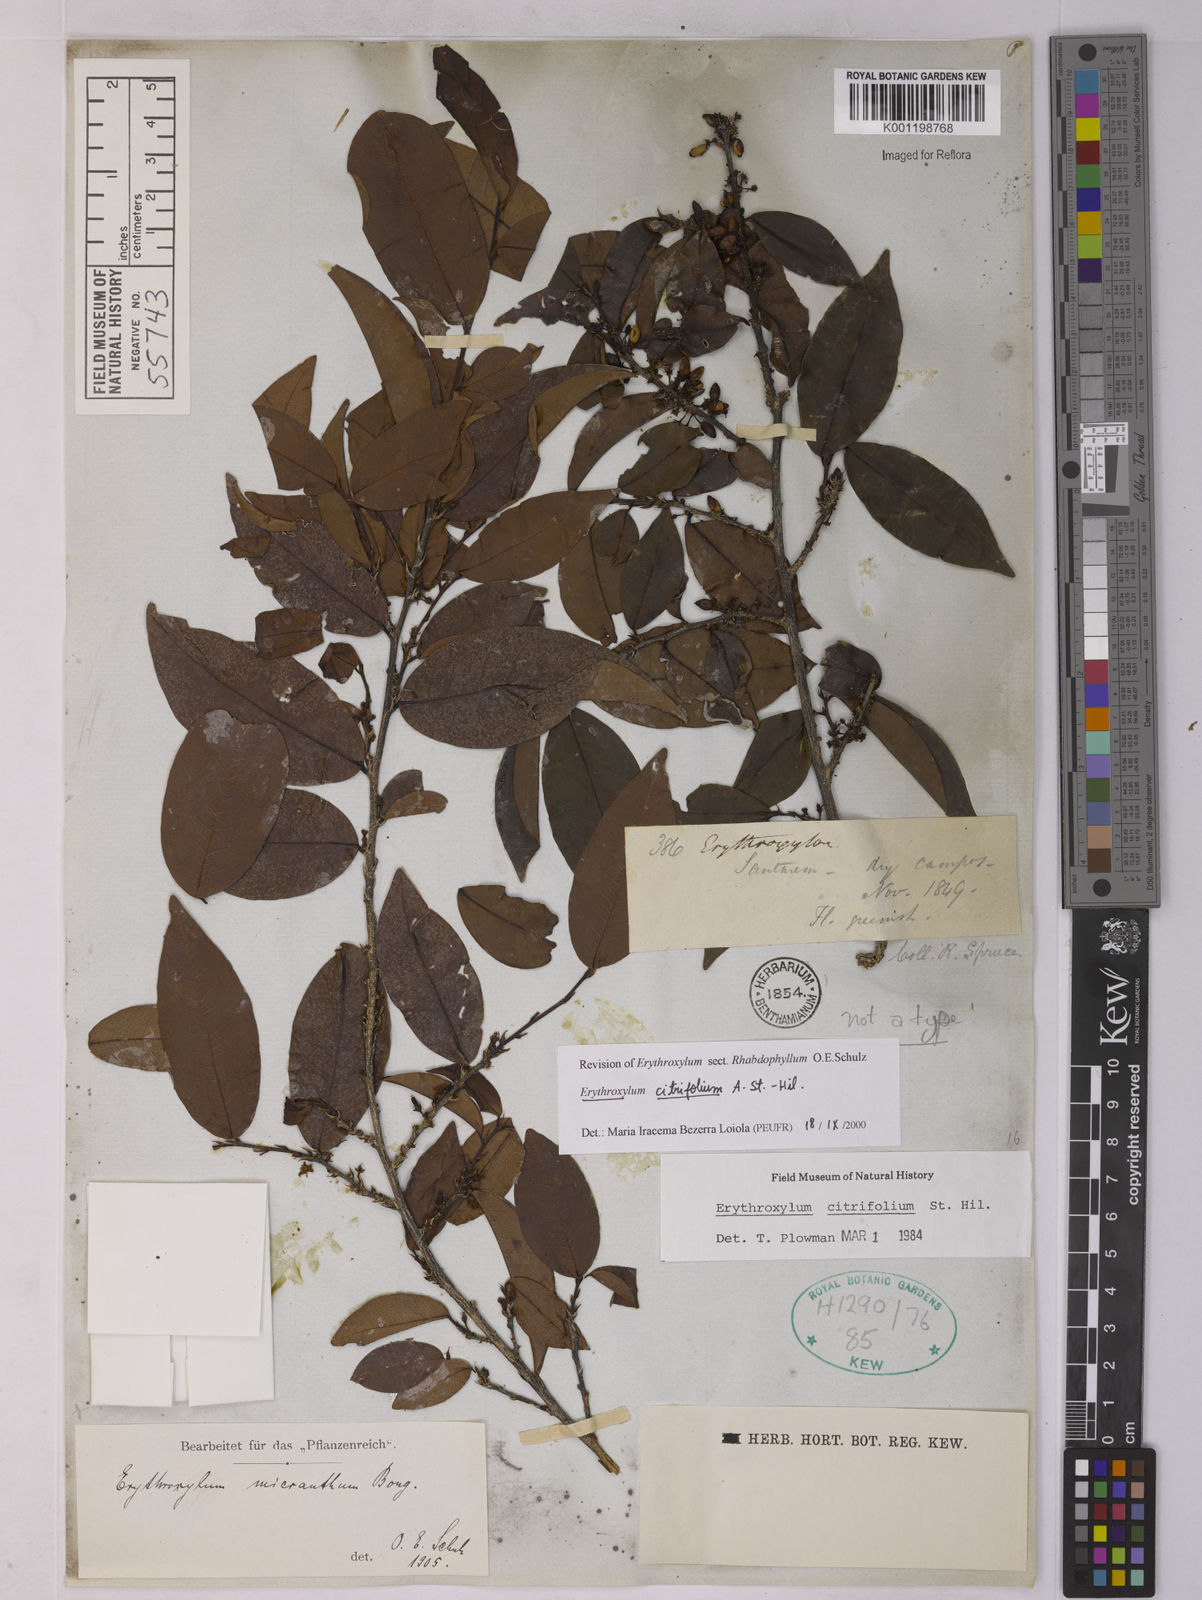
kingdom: Plantae
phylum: Tracheophyta
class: Magnoliopsida
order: Malpighiales
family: Erythroxylaceae
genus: Erythroxylum
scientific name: Erythroxylum citrifolium
